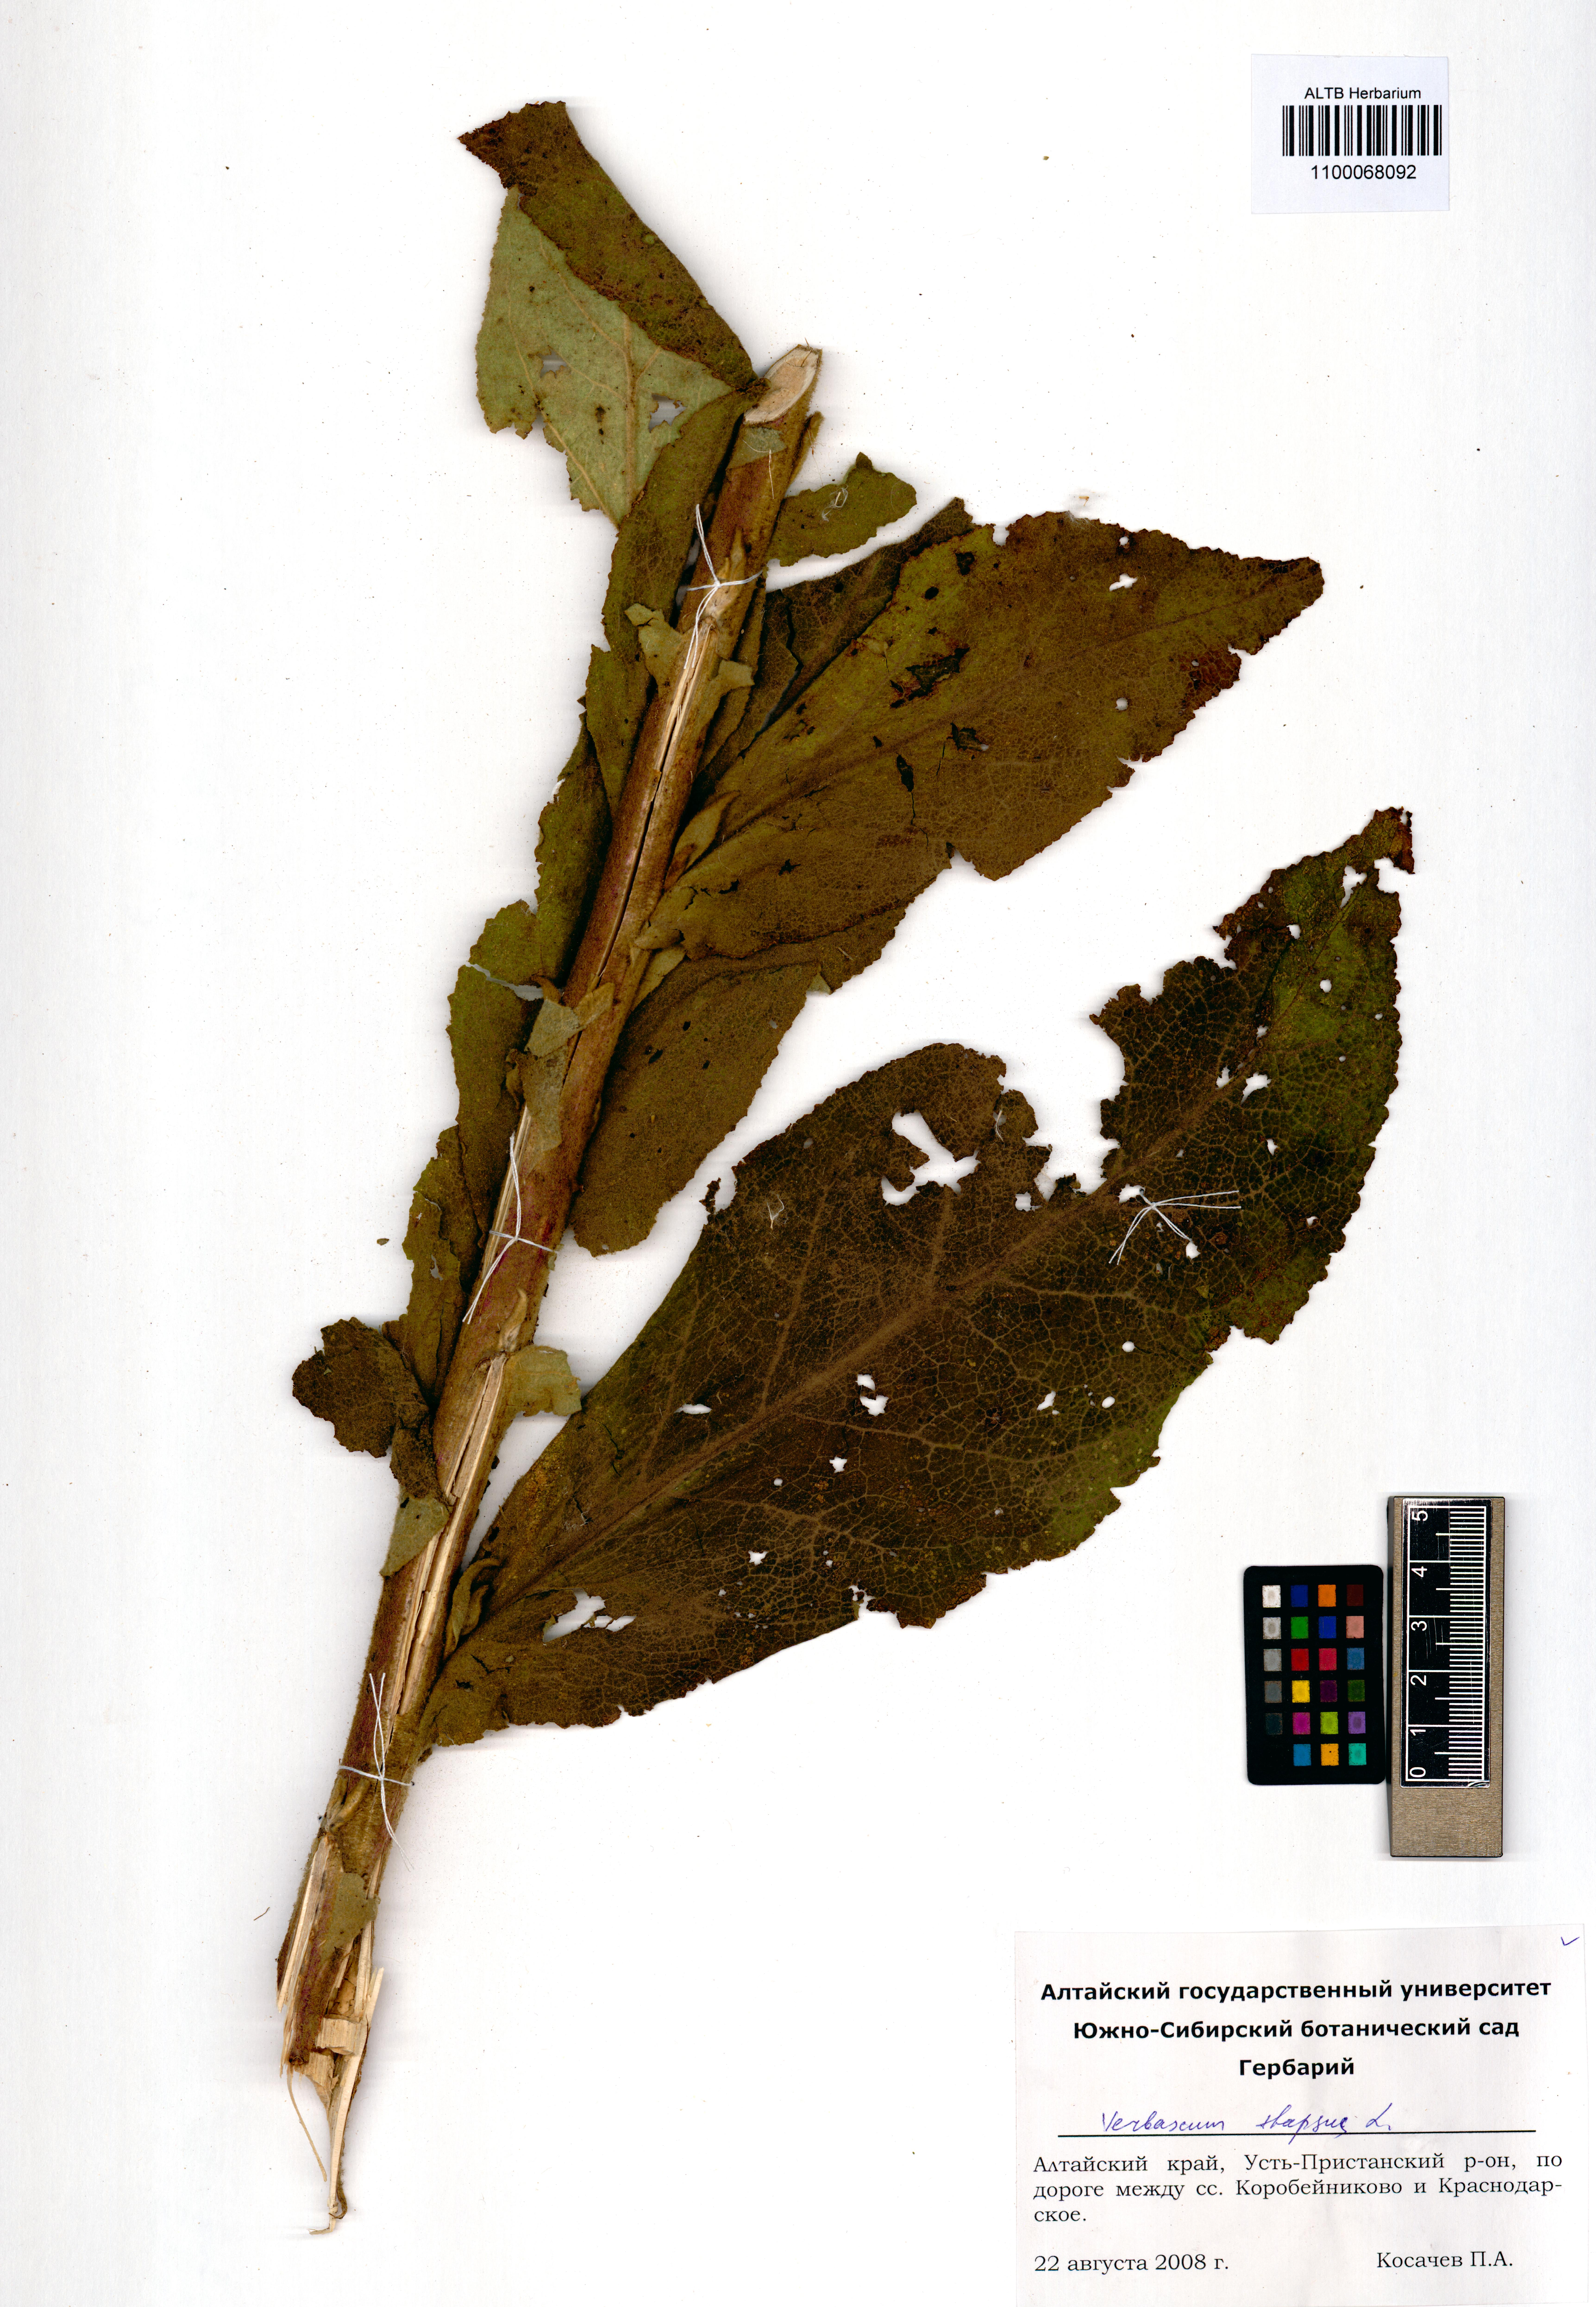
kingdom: Plantae
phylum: Tracheophyta
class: Magnoliopsida
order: Lamiales
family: Scrophulariaceae
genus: Verbascum
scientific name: Verbascum thapsus
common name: Common mullein
